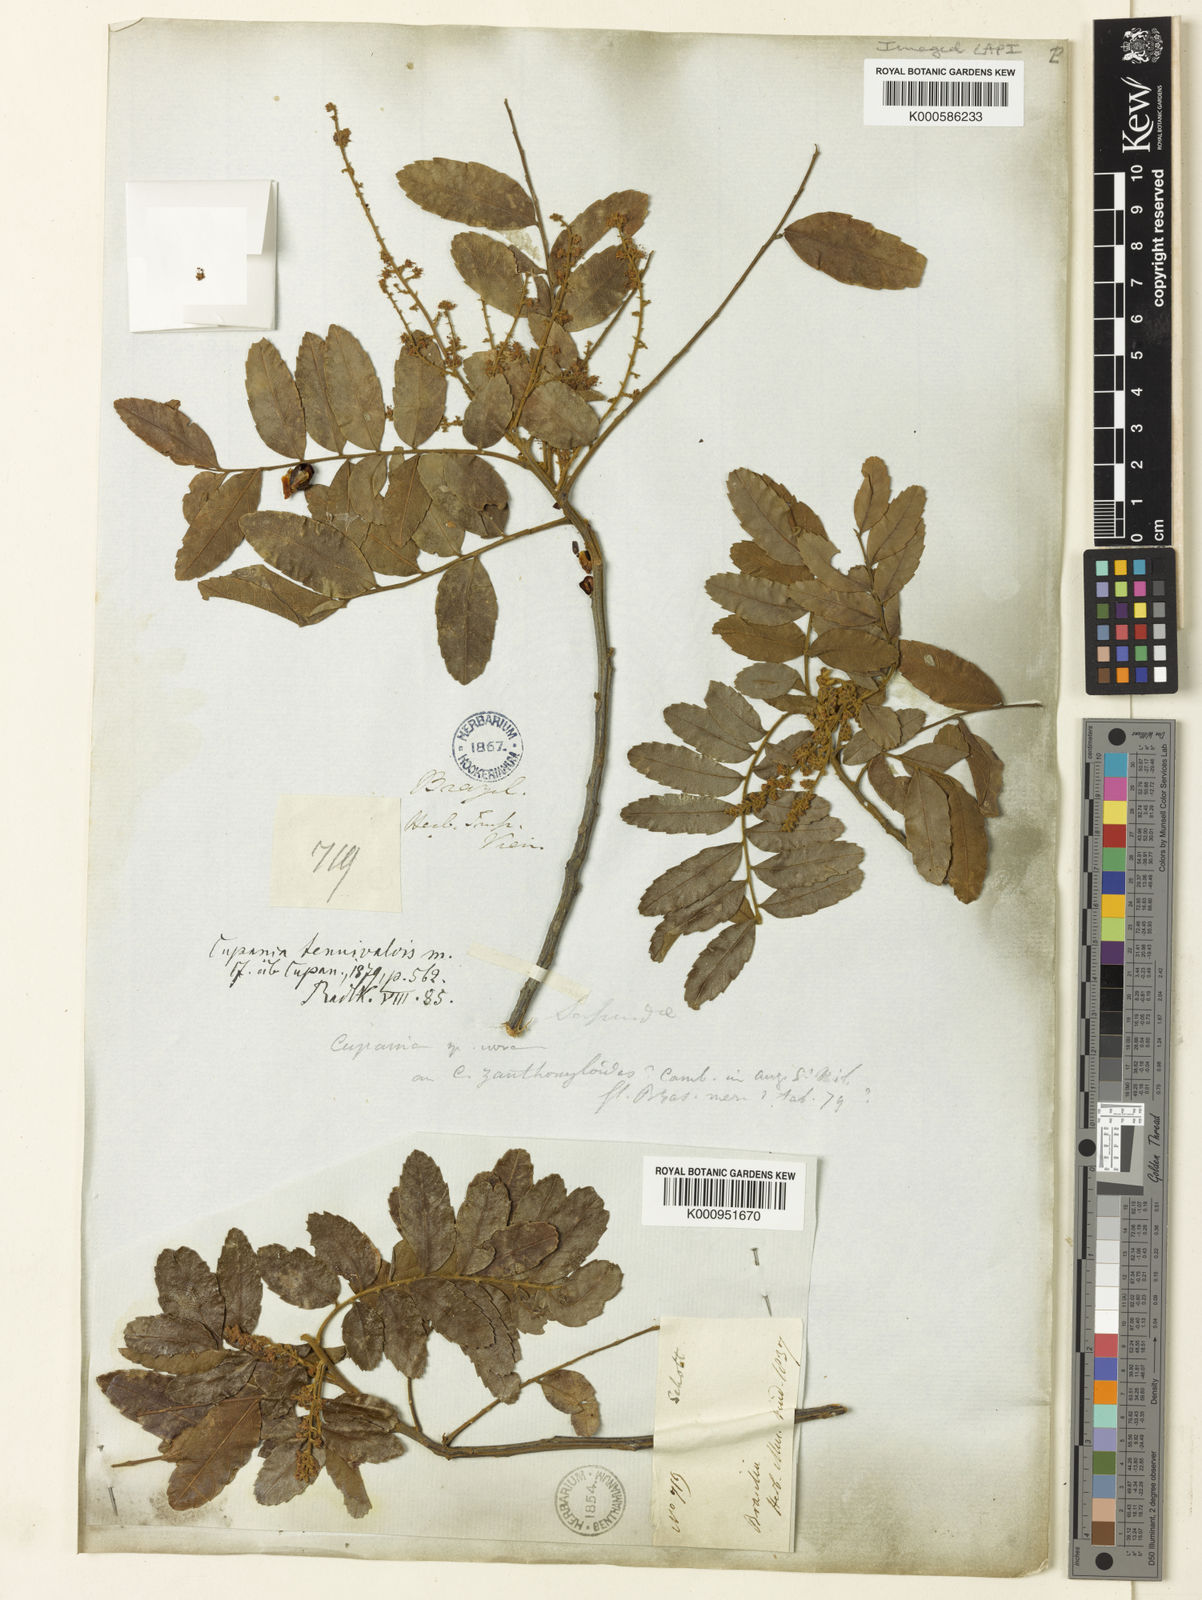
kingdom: Plantae
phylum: Tracheophyta
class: Magnoliopsida
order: Sapindales
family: Sapindaceae
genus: Cupania
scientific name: Cupania tenuivalvis
